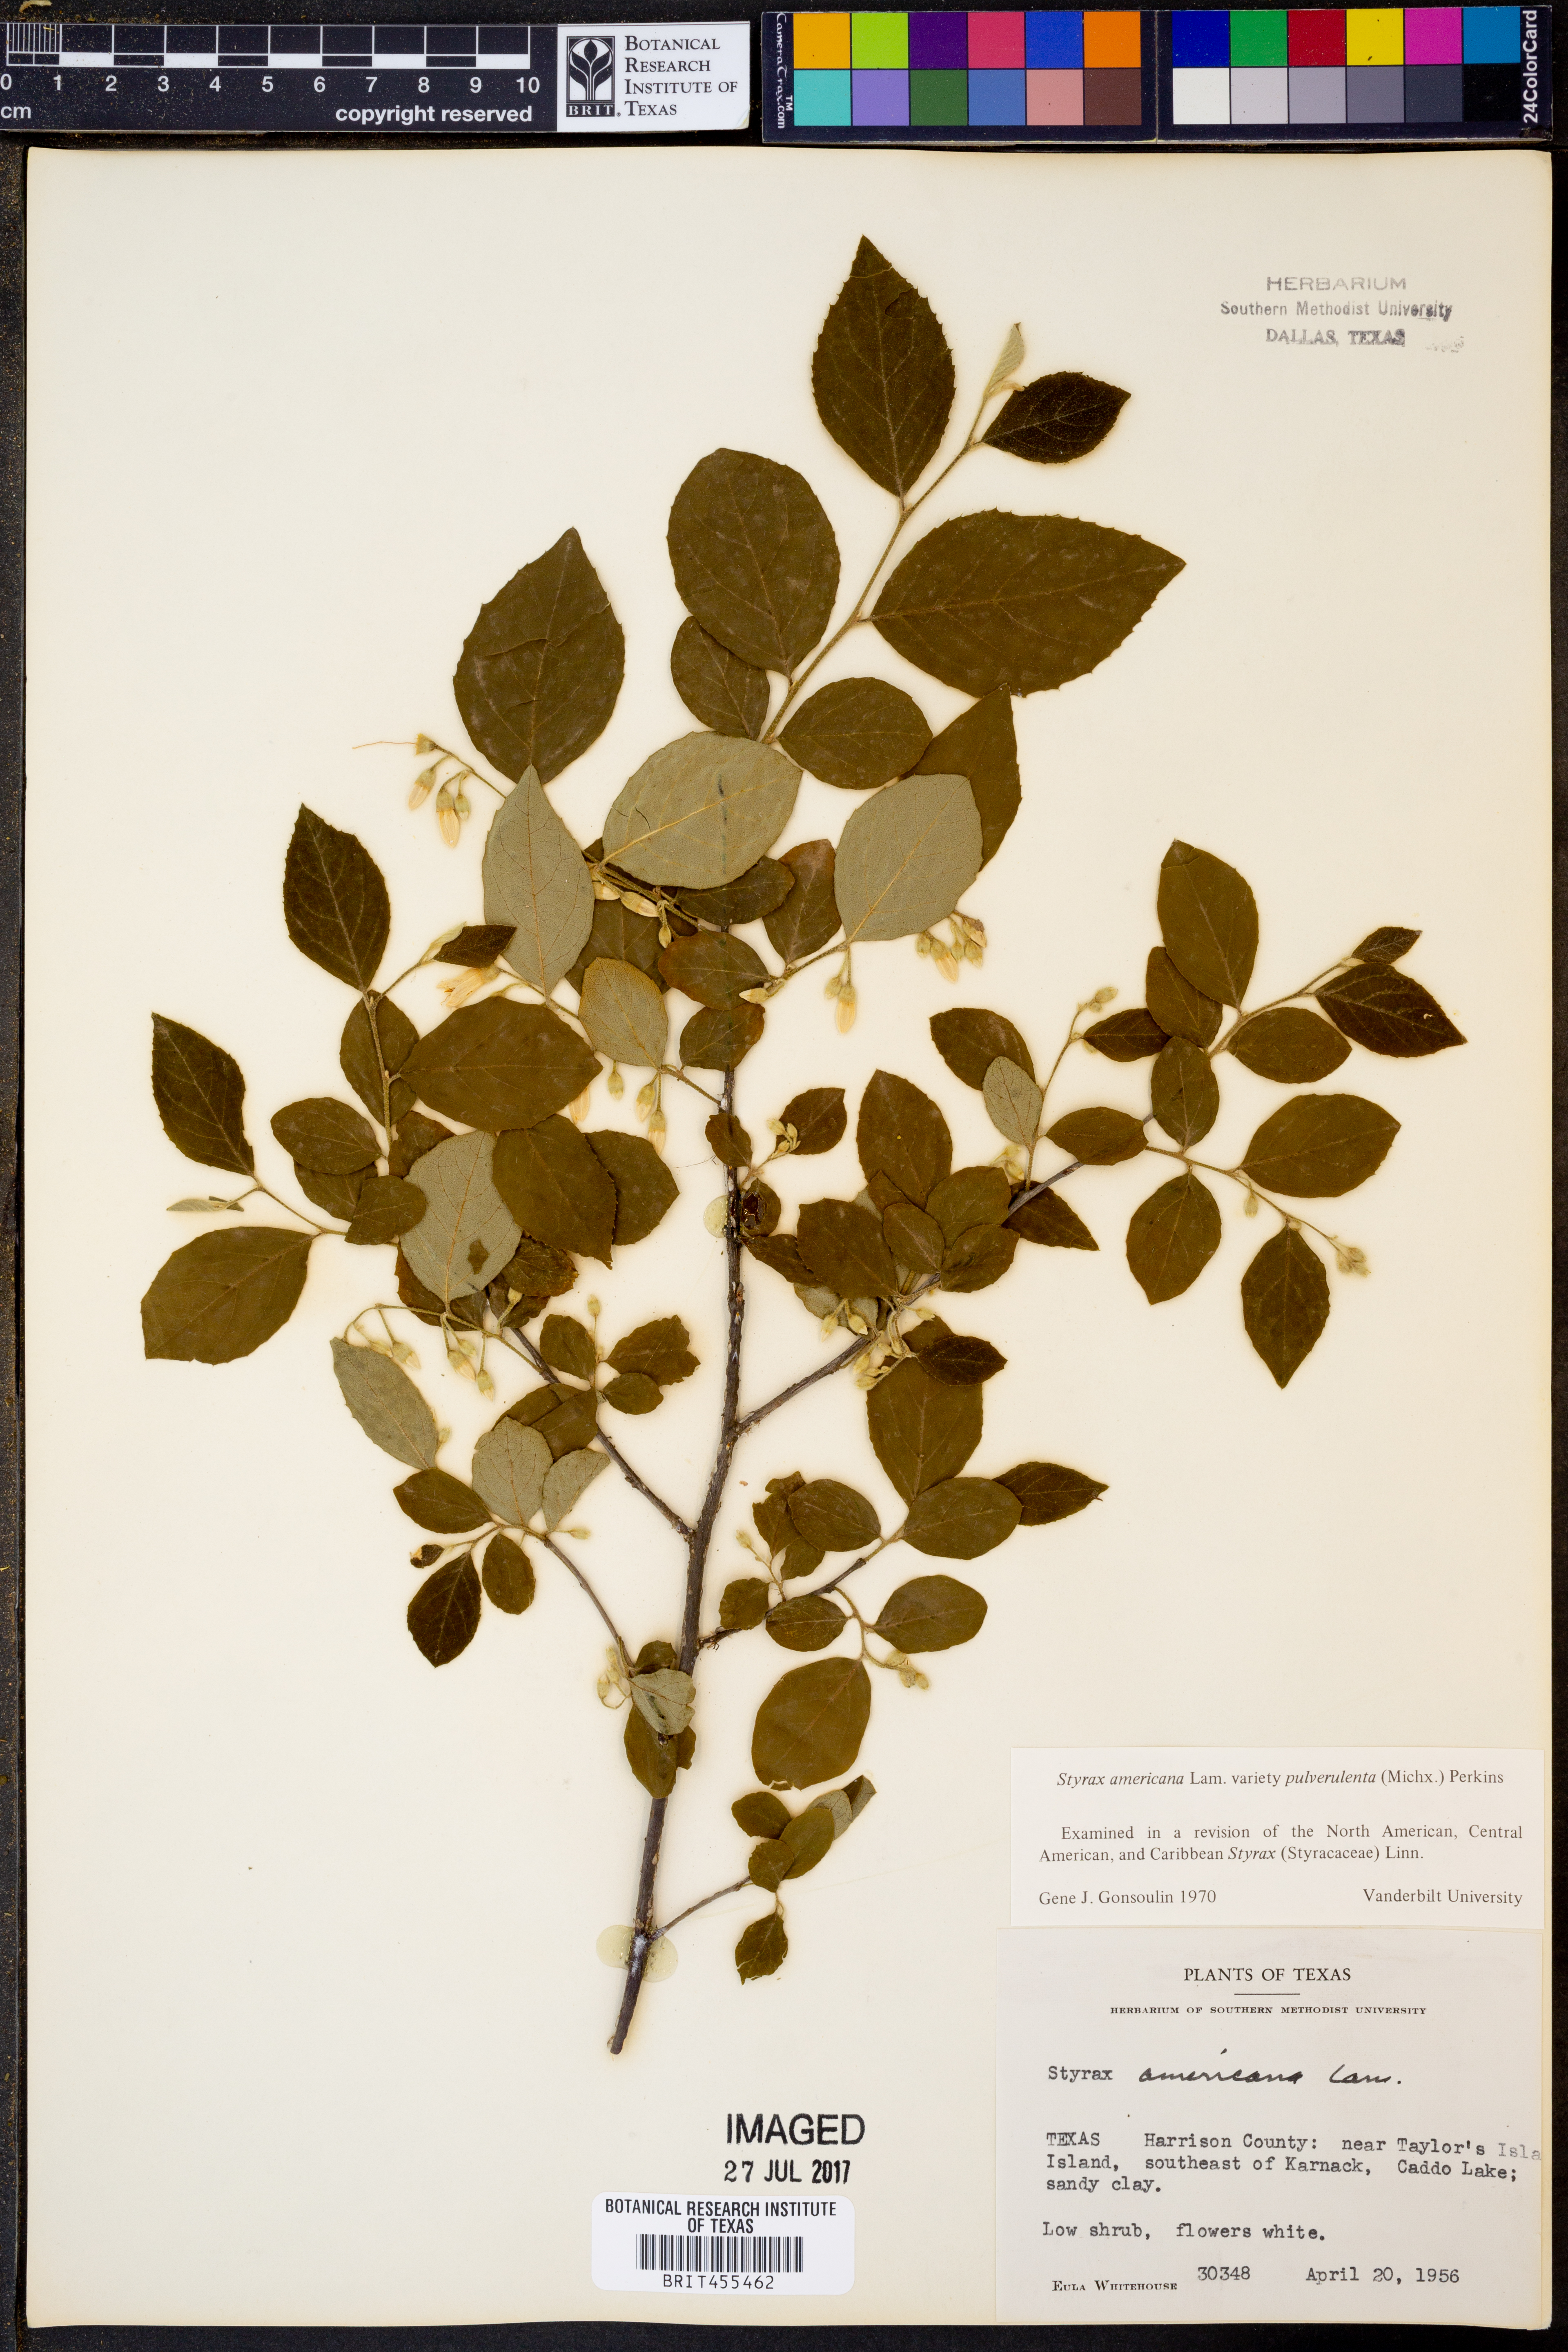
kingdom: Plantae
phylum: Tracheophyta
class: Magnoliopsida
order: Ericales
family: Styracaceae
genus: Styrax
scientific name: Styrax americanus
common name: American snowbell
